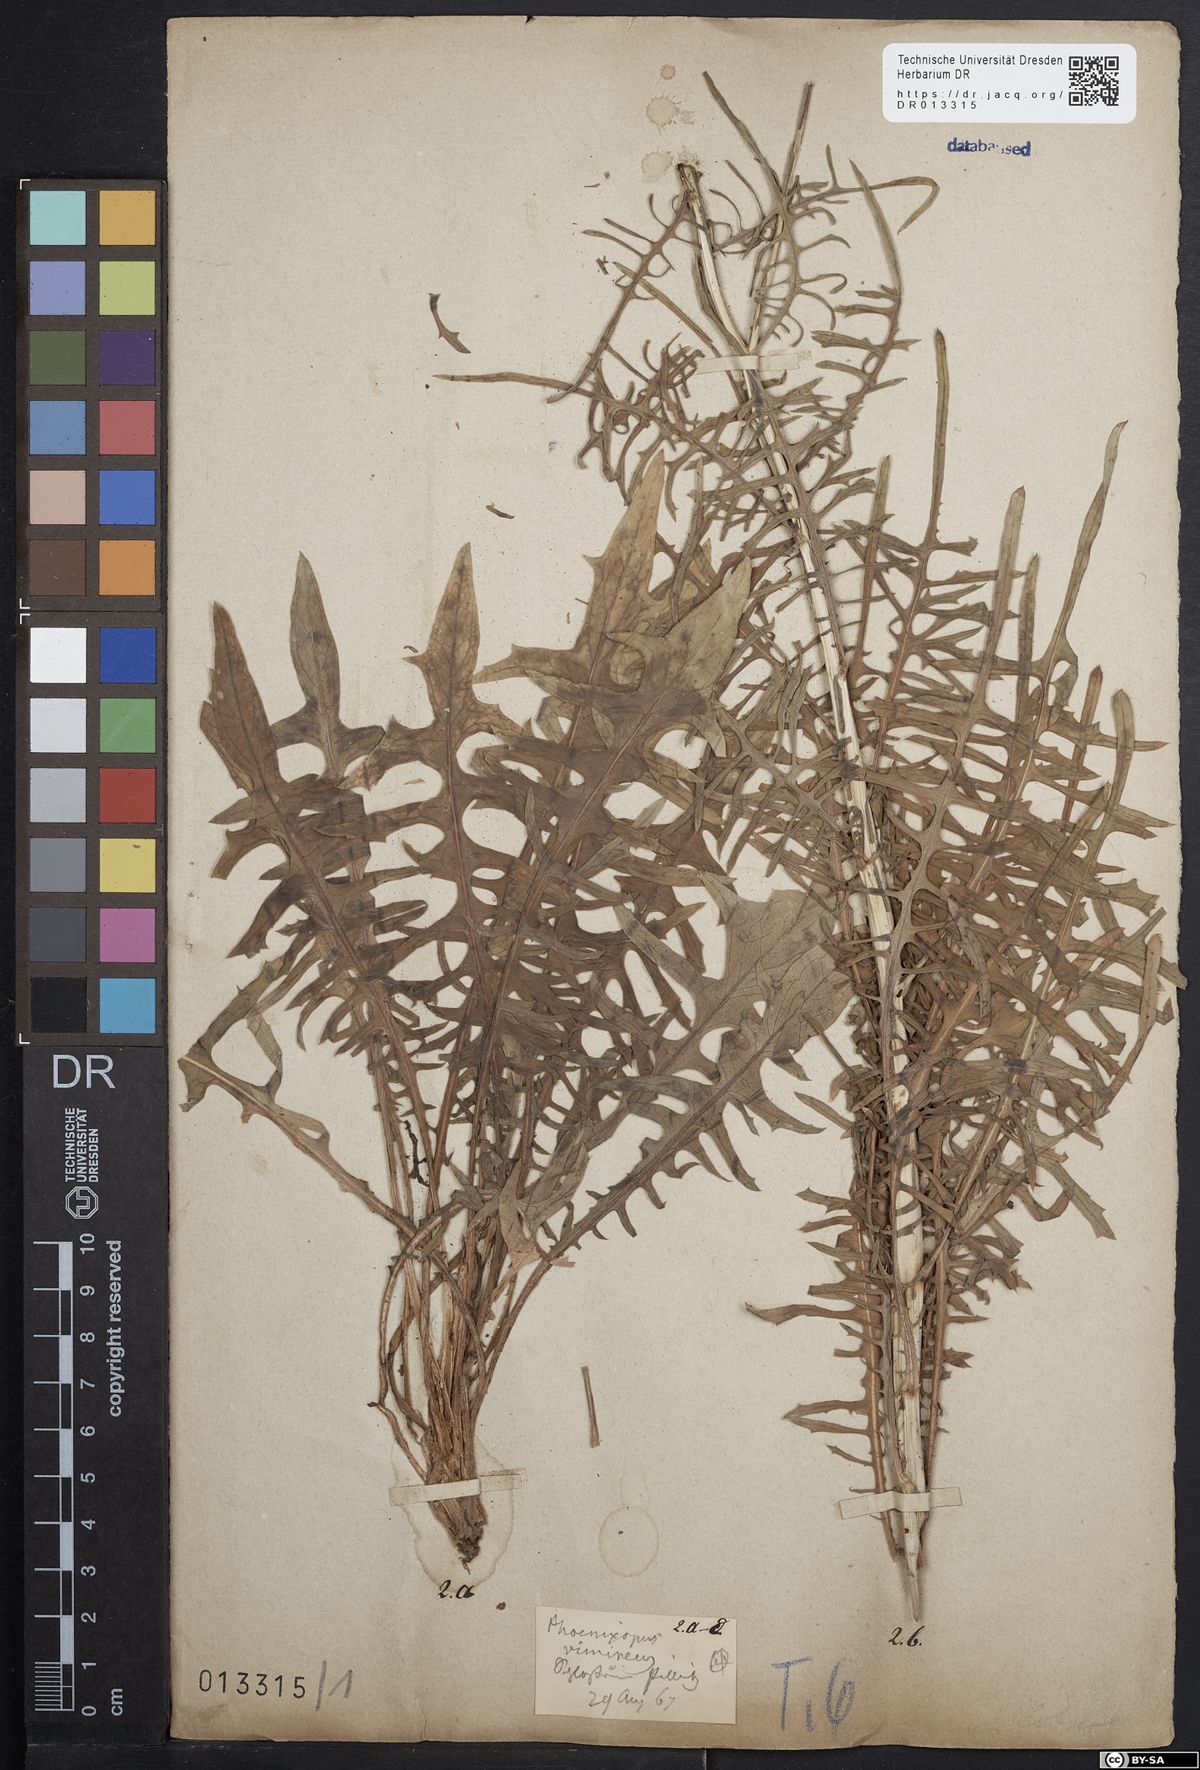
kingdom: Plantae
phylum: Tracheophyta
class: Magnoliopsida
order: Asterales
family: Asteraceae
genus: Lactuca
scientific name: Lactuca viminea
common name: Pliant lettuce
